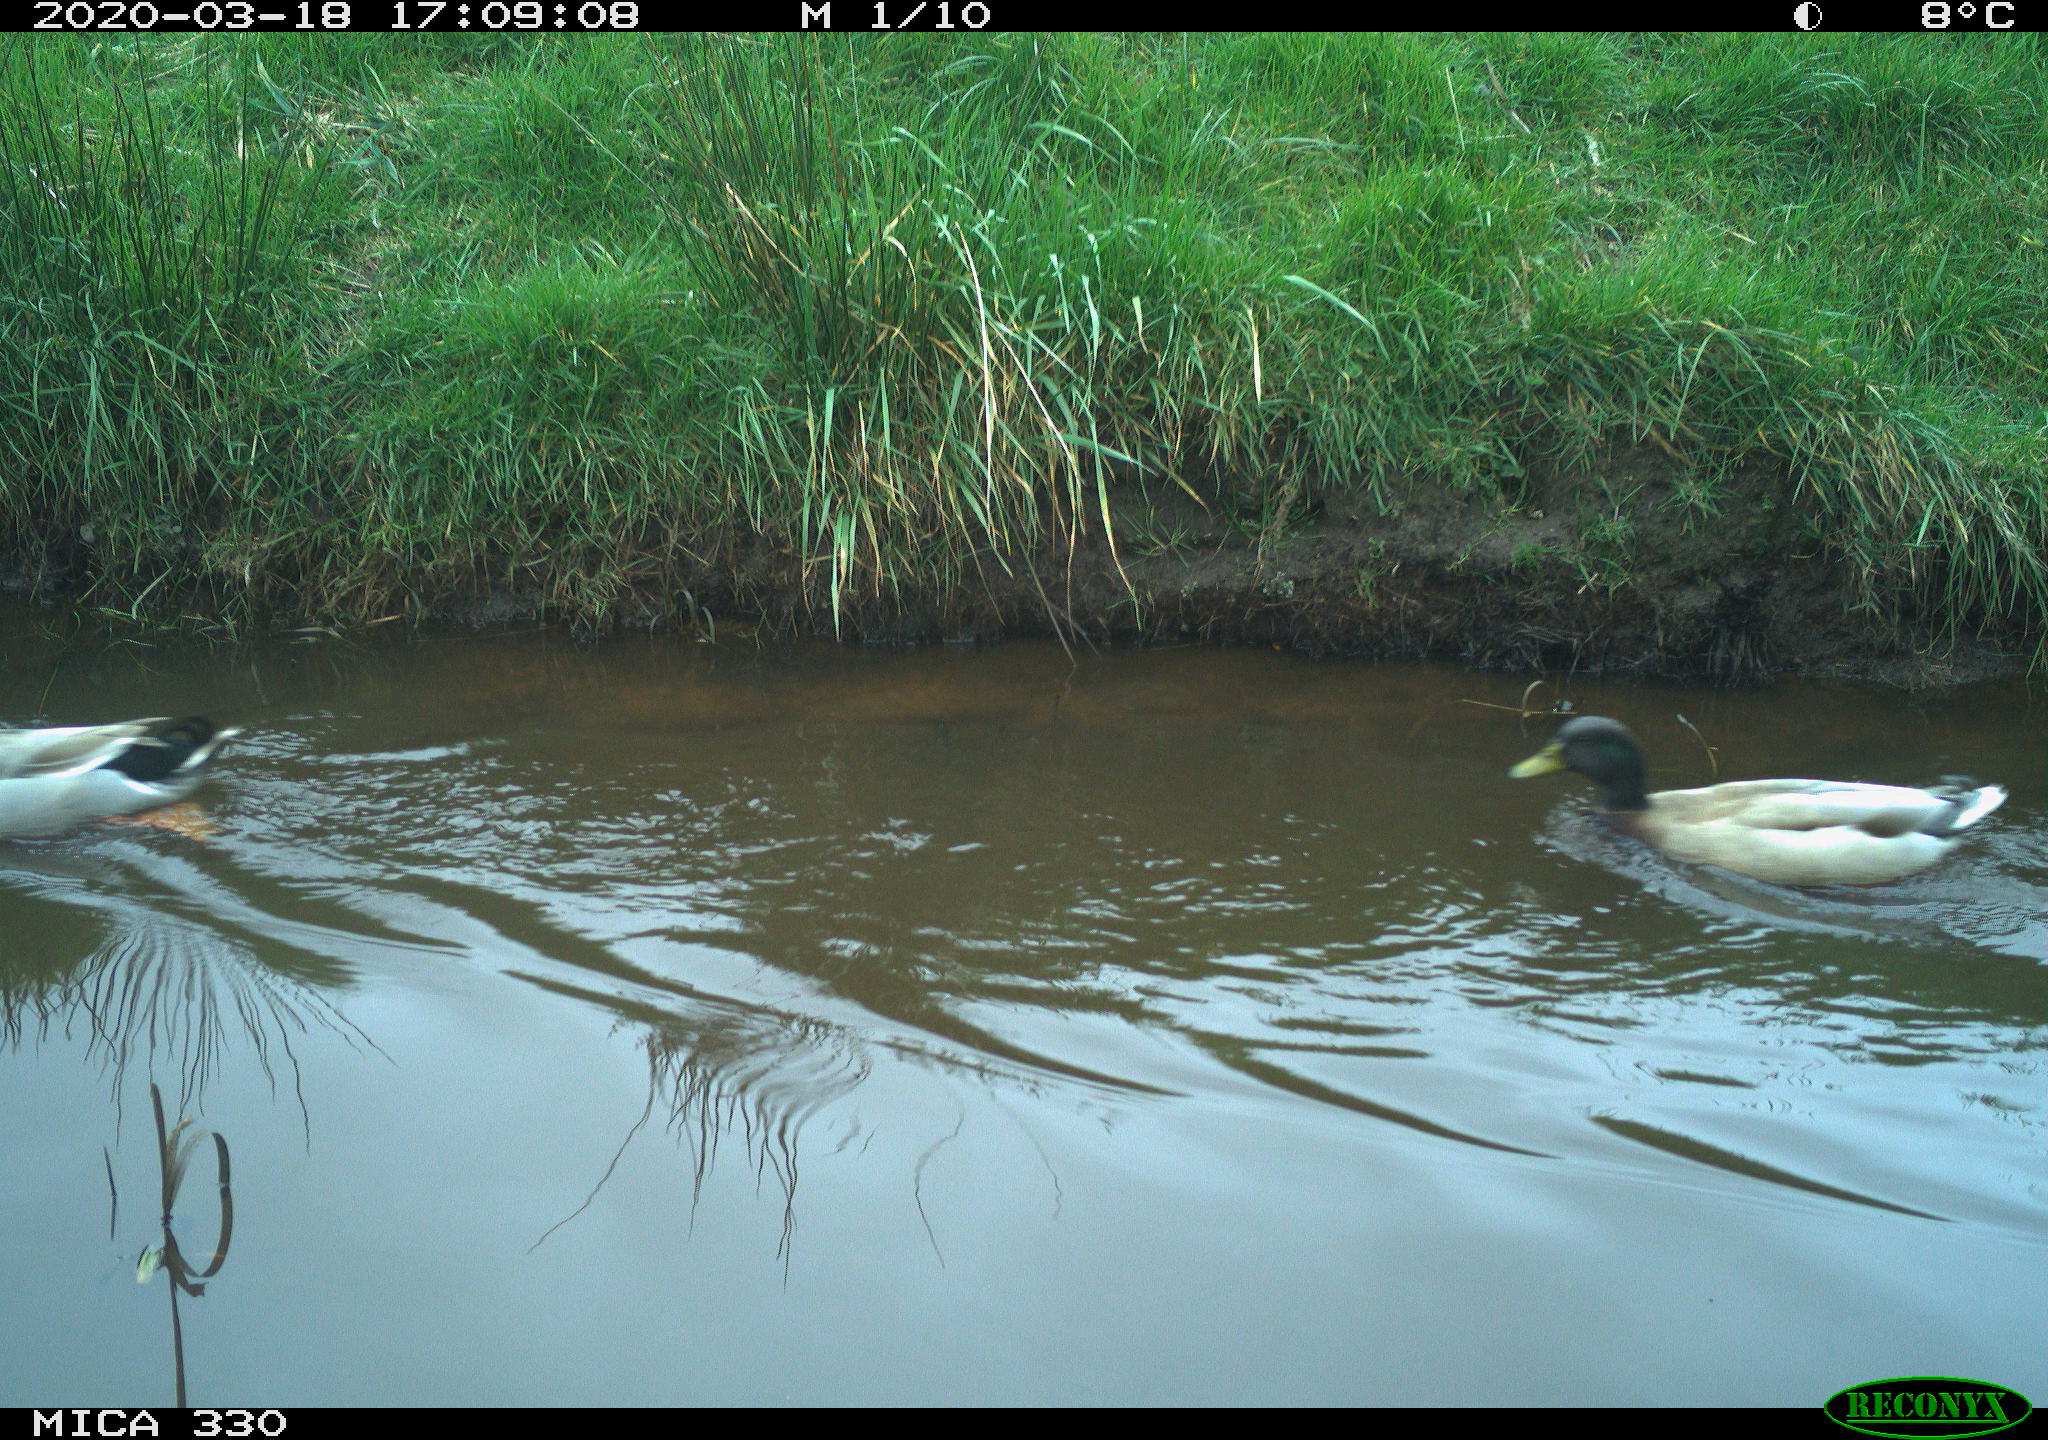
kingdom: Animalia
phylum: Chordata
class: Aves
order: Anseriformes
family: Anatidae
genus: Anas
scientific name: Anas platyrhynchos
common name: Mallard
